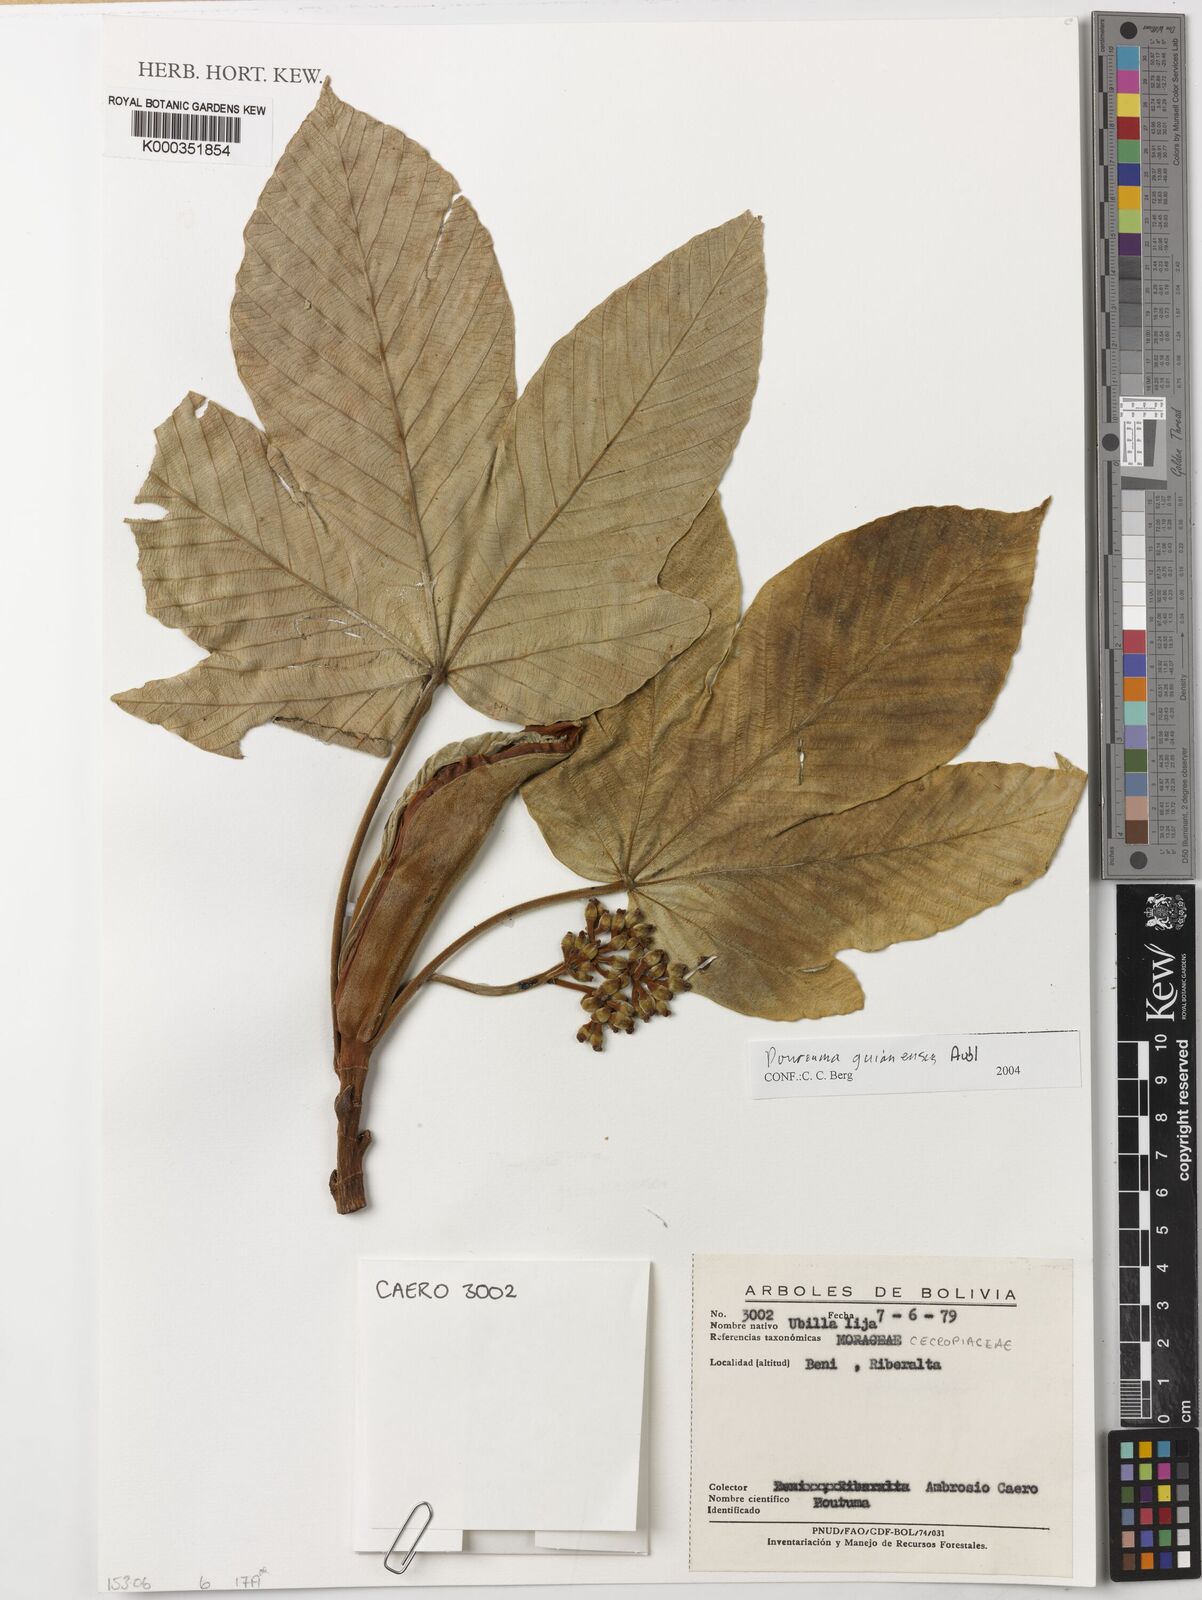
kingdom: Plantae
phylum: Tracheophyta
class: Magnoliopsida
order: Rosales
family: Urticaceae
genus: Pourouma
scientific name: Pourouma guianensis
